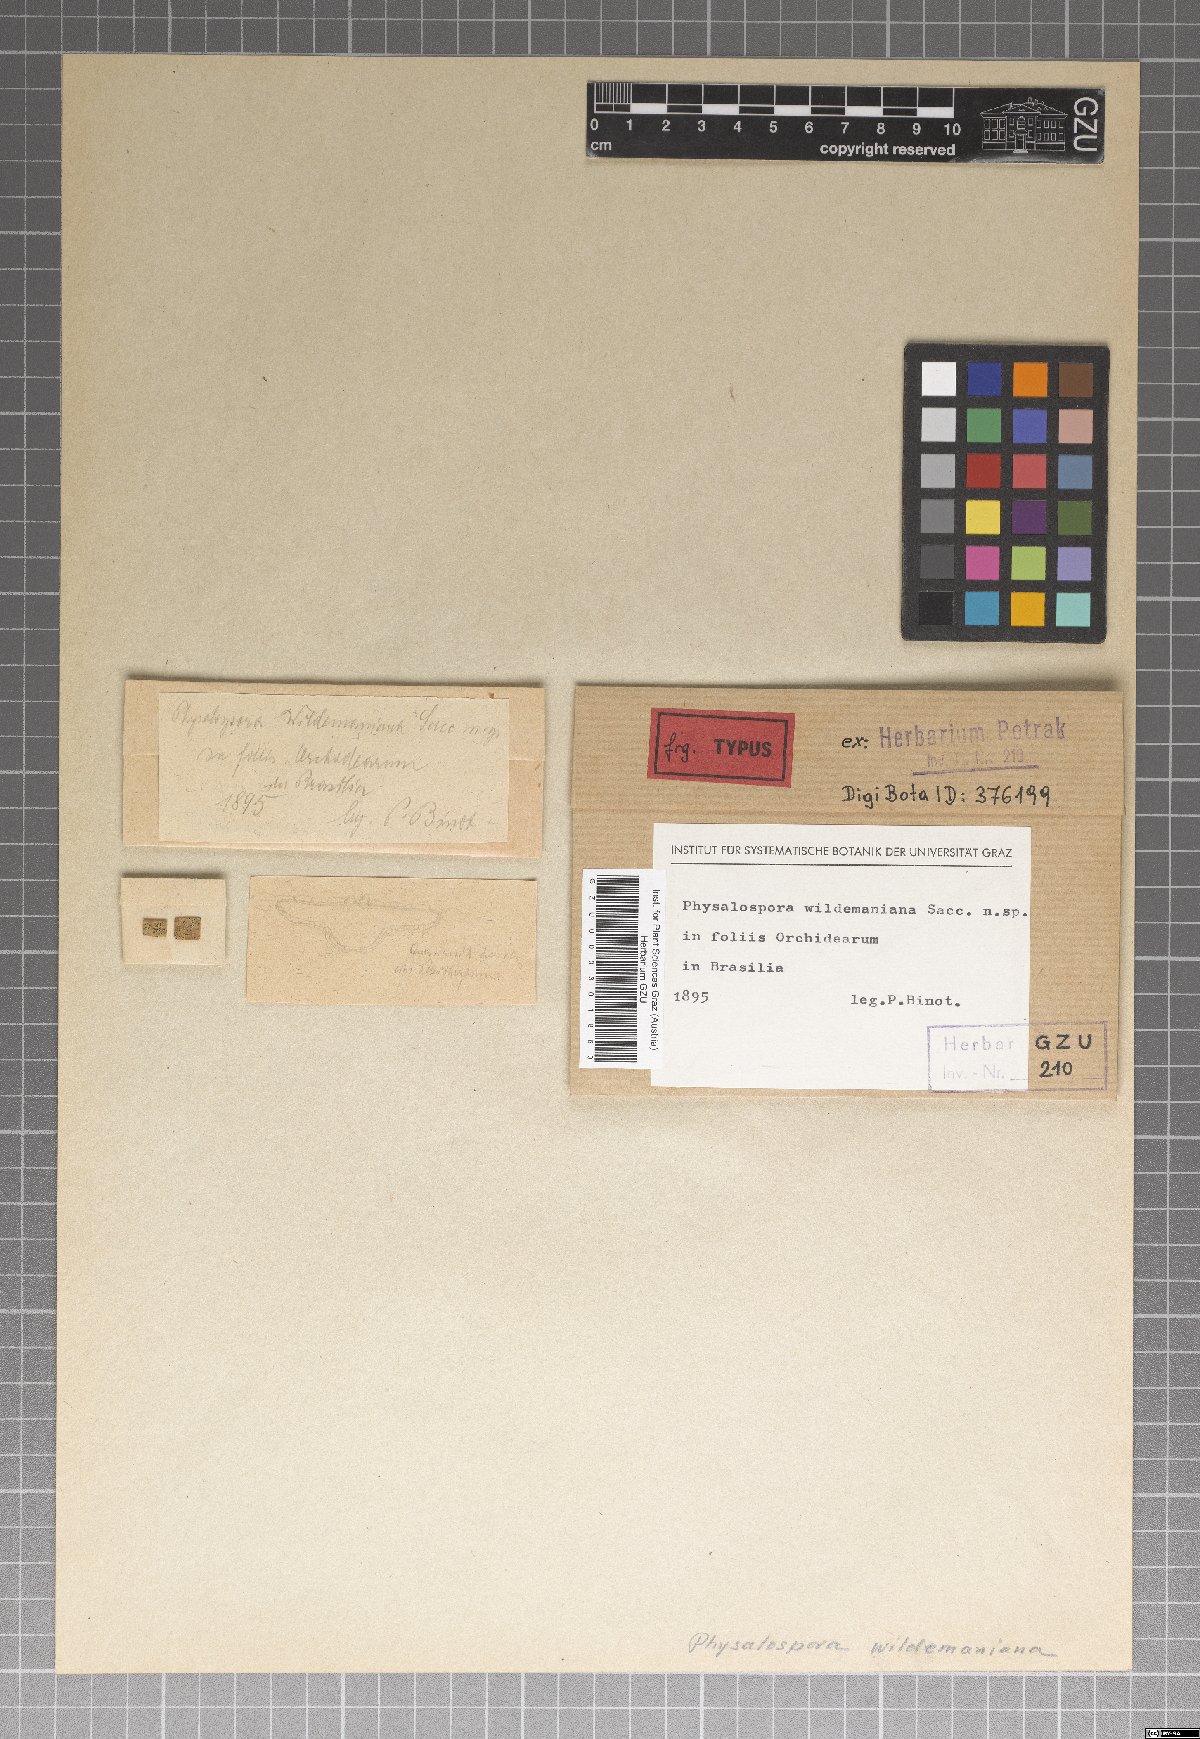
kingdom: Fungi
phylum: Ascomycota
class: Sordariomycetes
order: Xylariales
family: Hyponectriaceae
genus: Physalospora
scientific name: Physalospora
